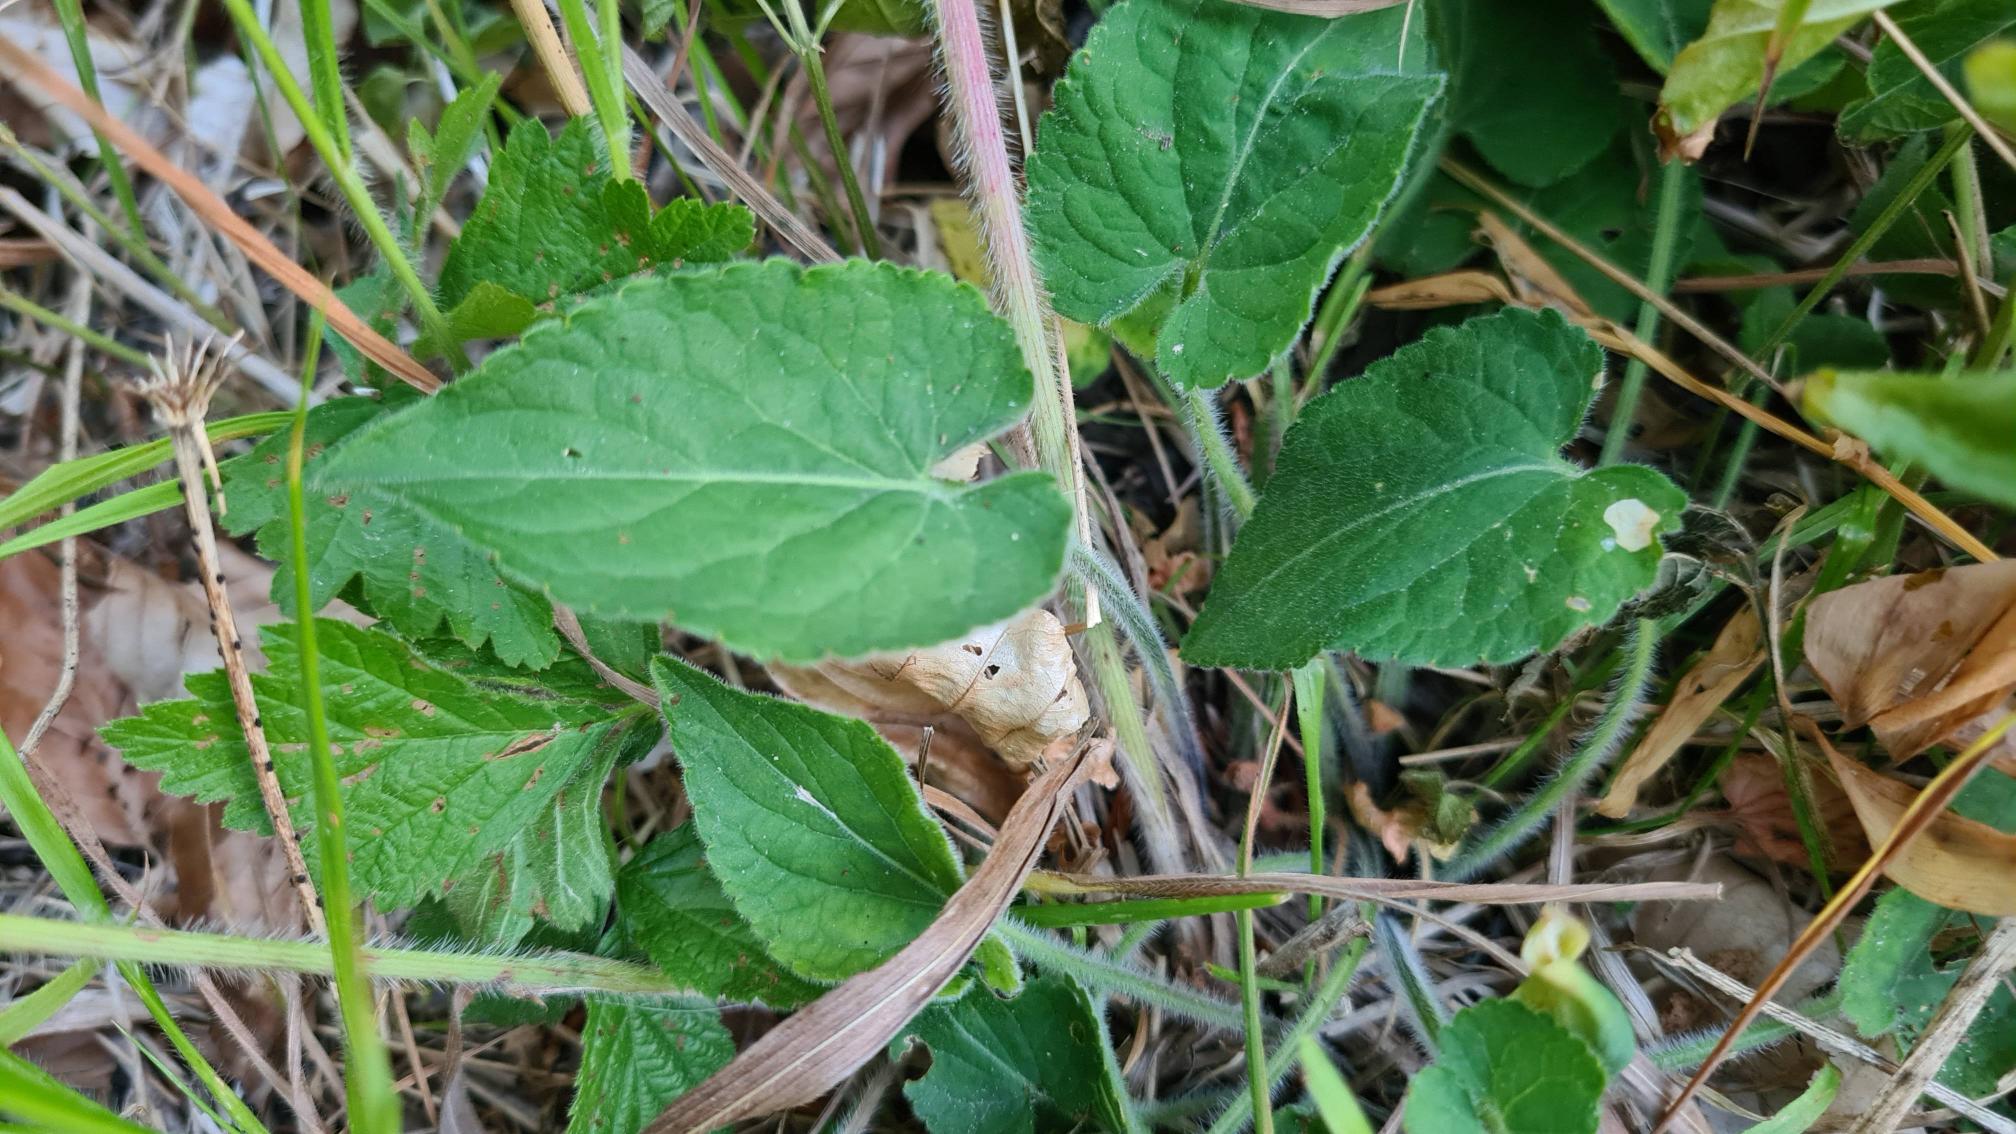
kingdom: Plantae
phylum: Tracheophyta
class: Magnoliopsida
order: Malpighiales
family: Violaceae
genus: Viola
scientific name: Viola hirta
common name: Håret viol
